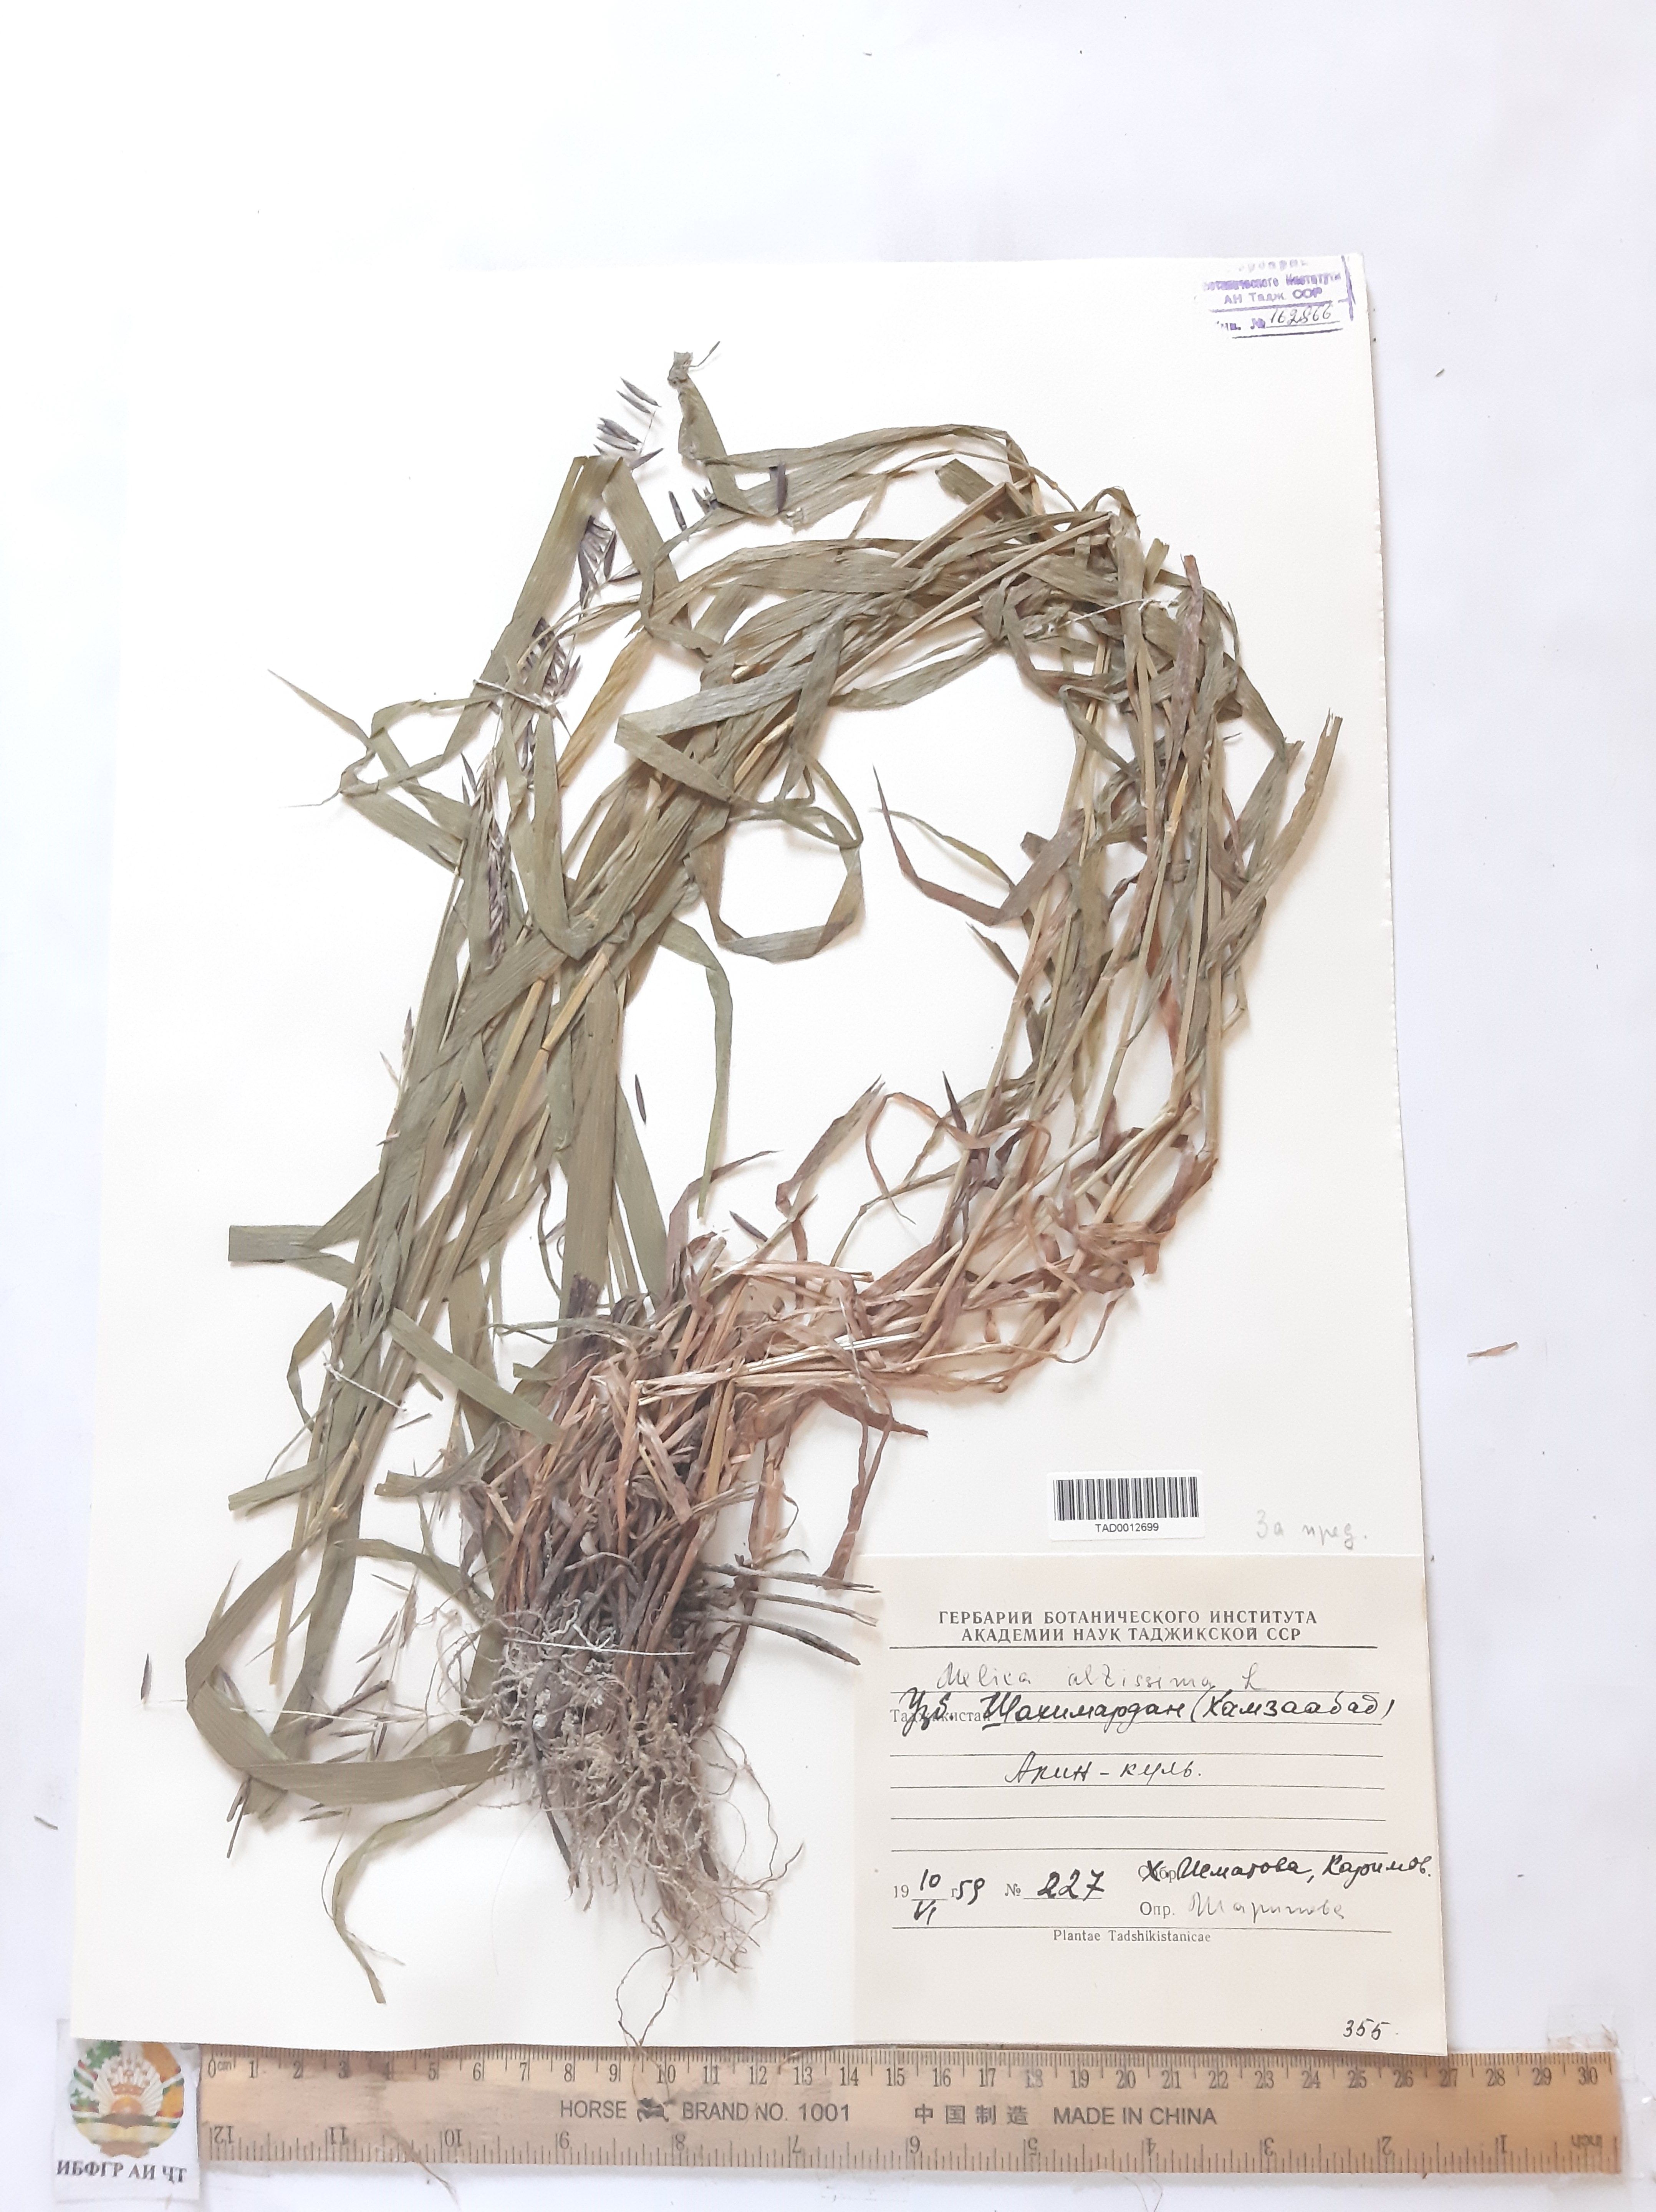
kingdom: Plantae
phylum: Tracheophyta
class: Liliopsida
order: Poales
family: Poaceae
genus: Melica
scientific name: Melica altissima
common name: Siberian melicgrass
